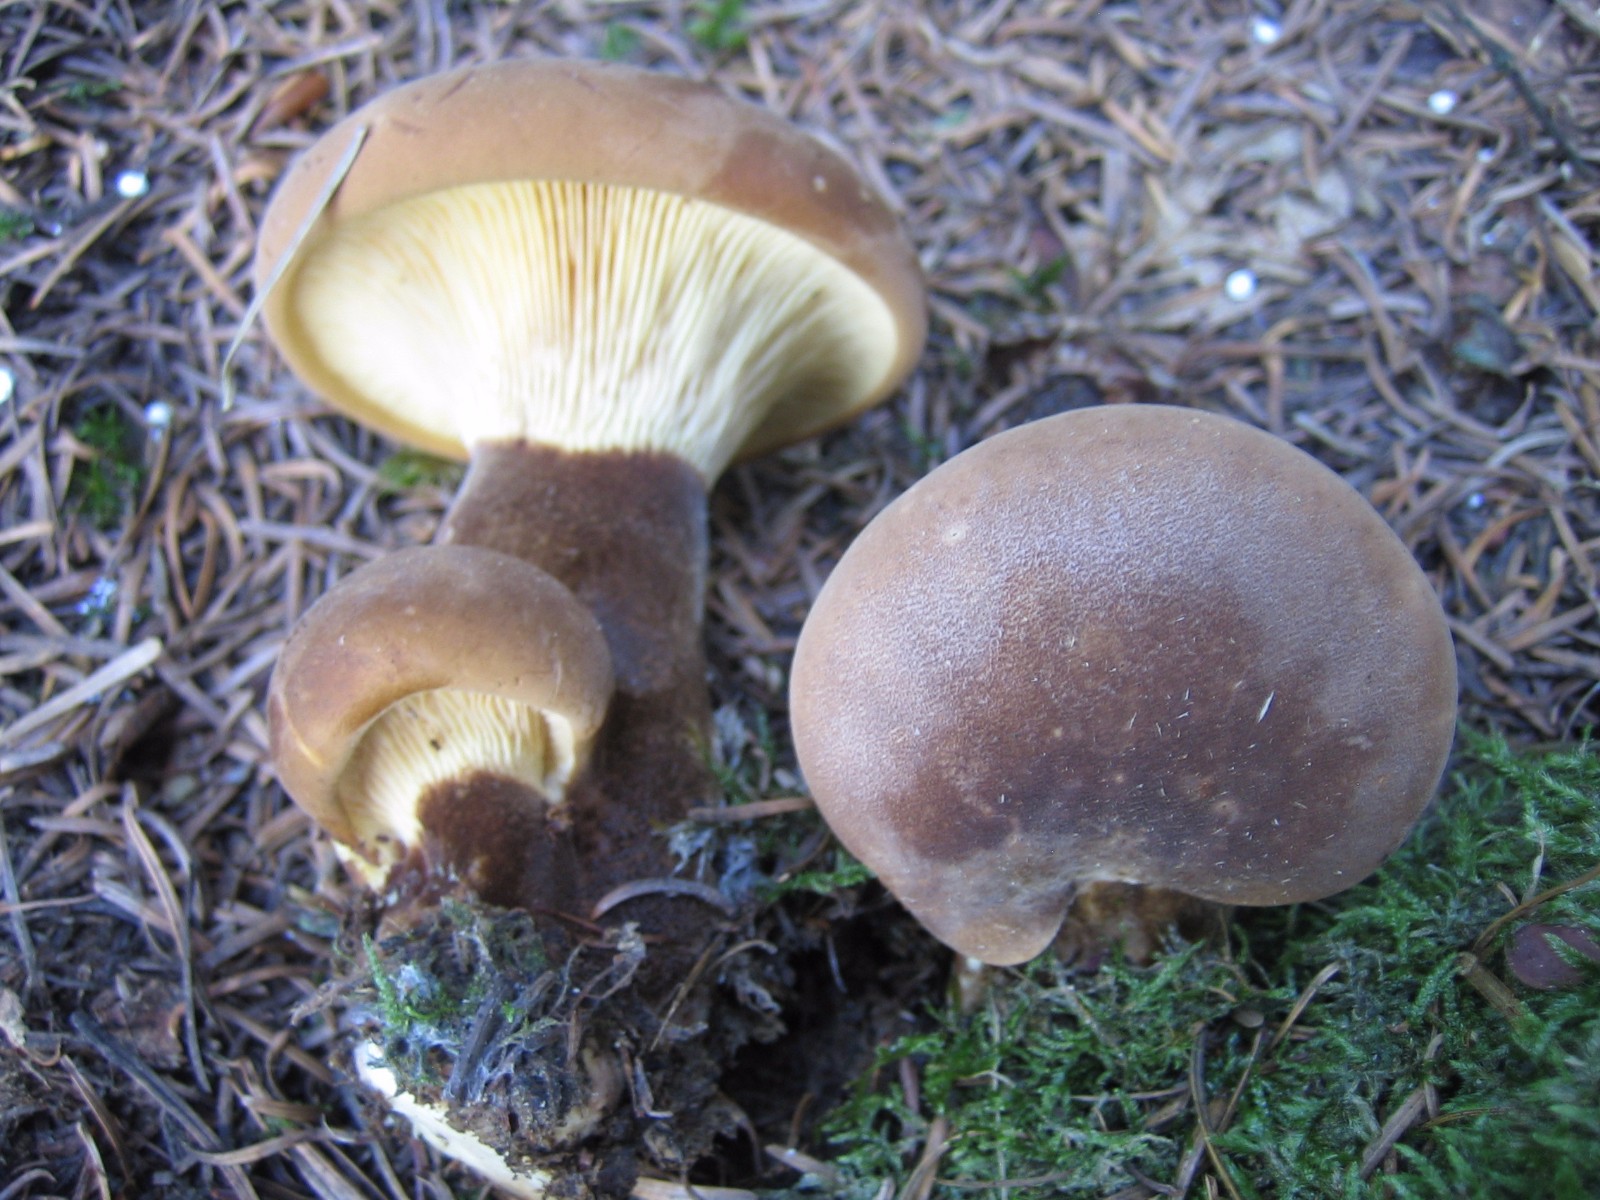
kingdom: Fungi
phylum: Basidiomycota
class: Agaricomycetes
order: Boletales
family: Tapinellaceae
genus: Tapinella
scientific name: Tapinella atrotomentosa
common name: sortfiltet viftesvamp
